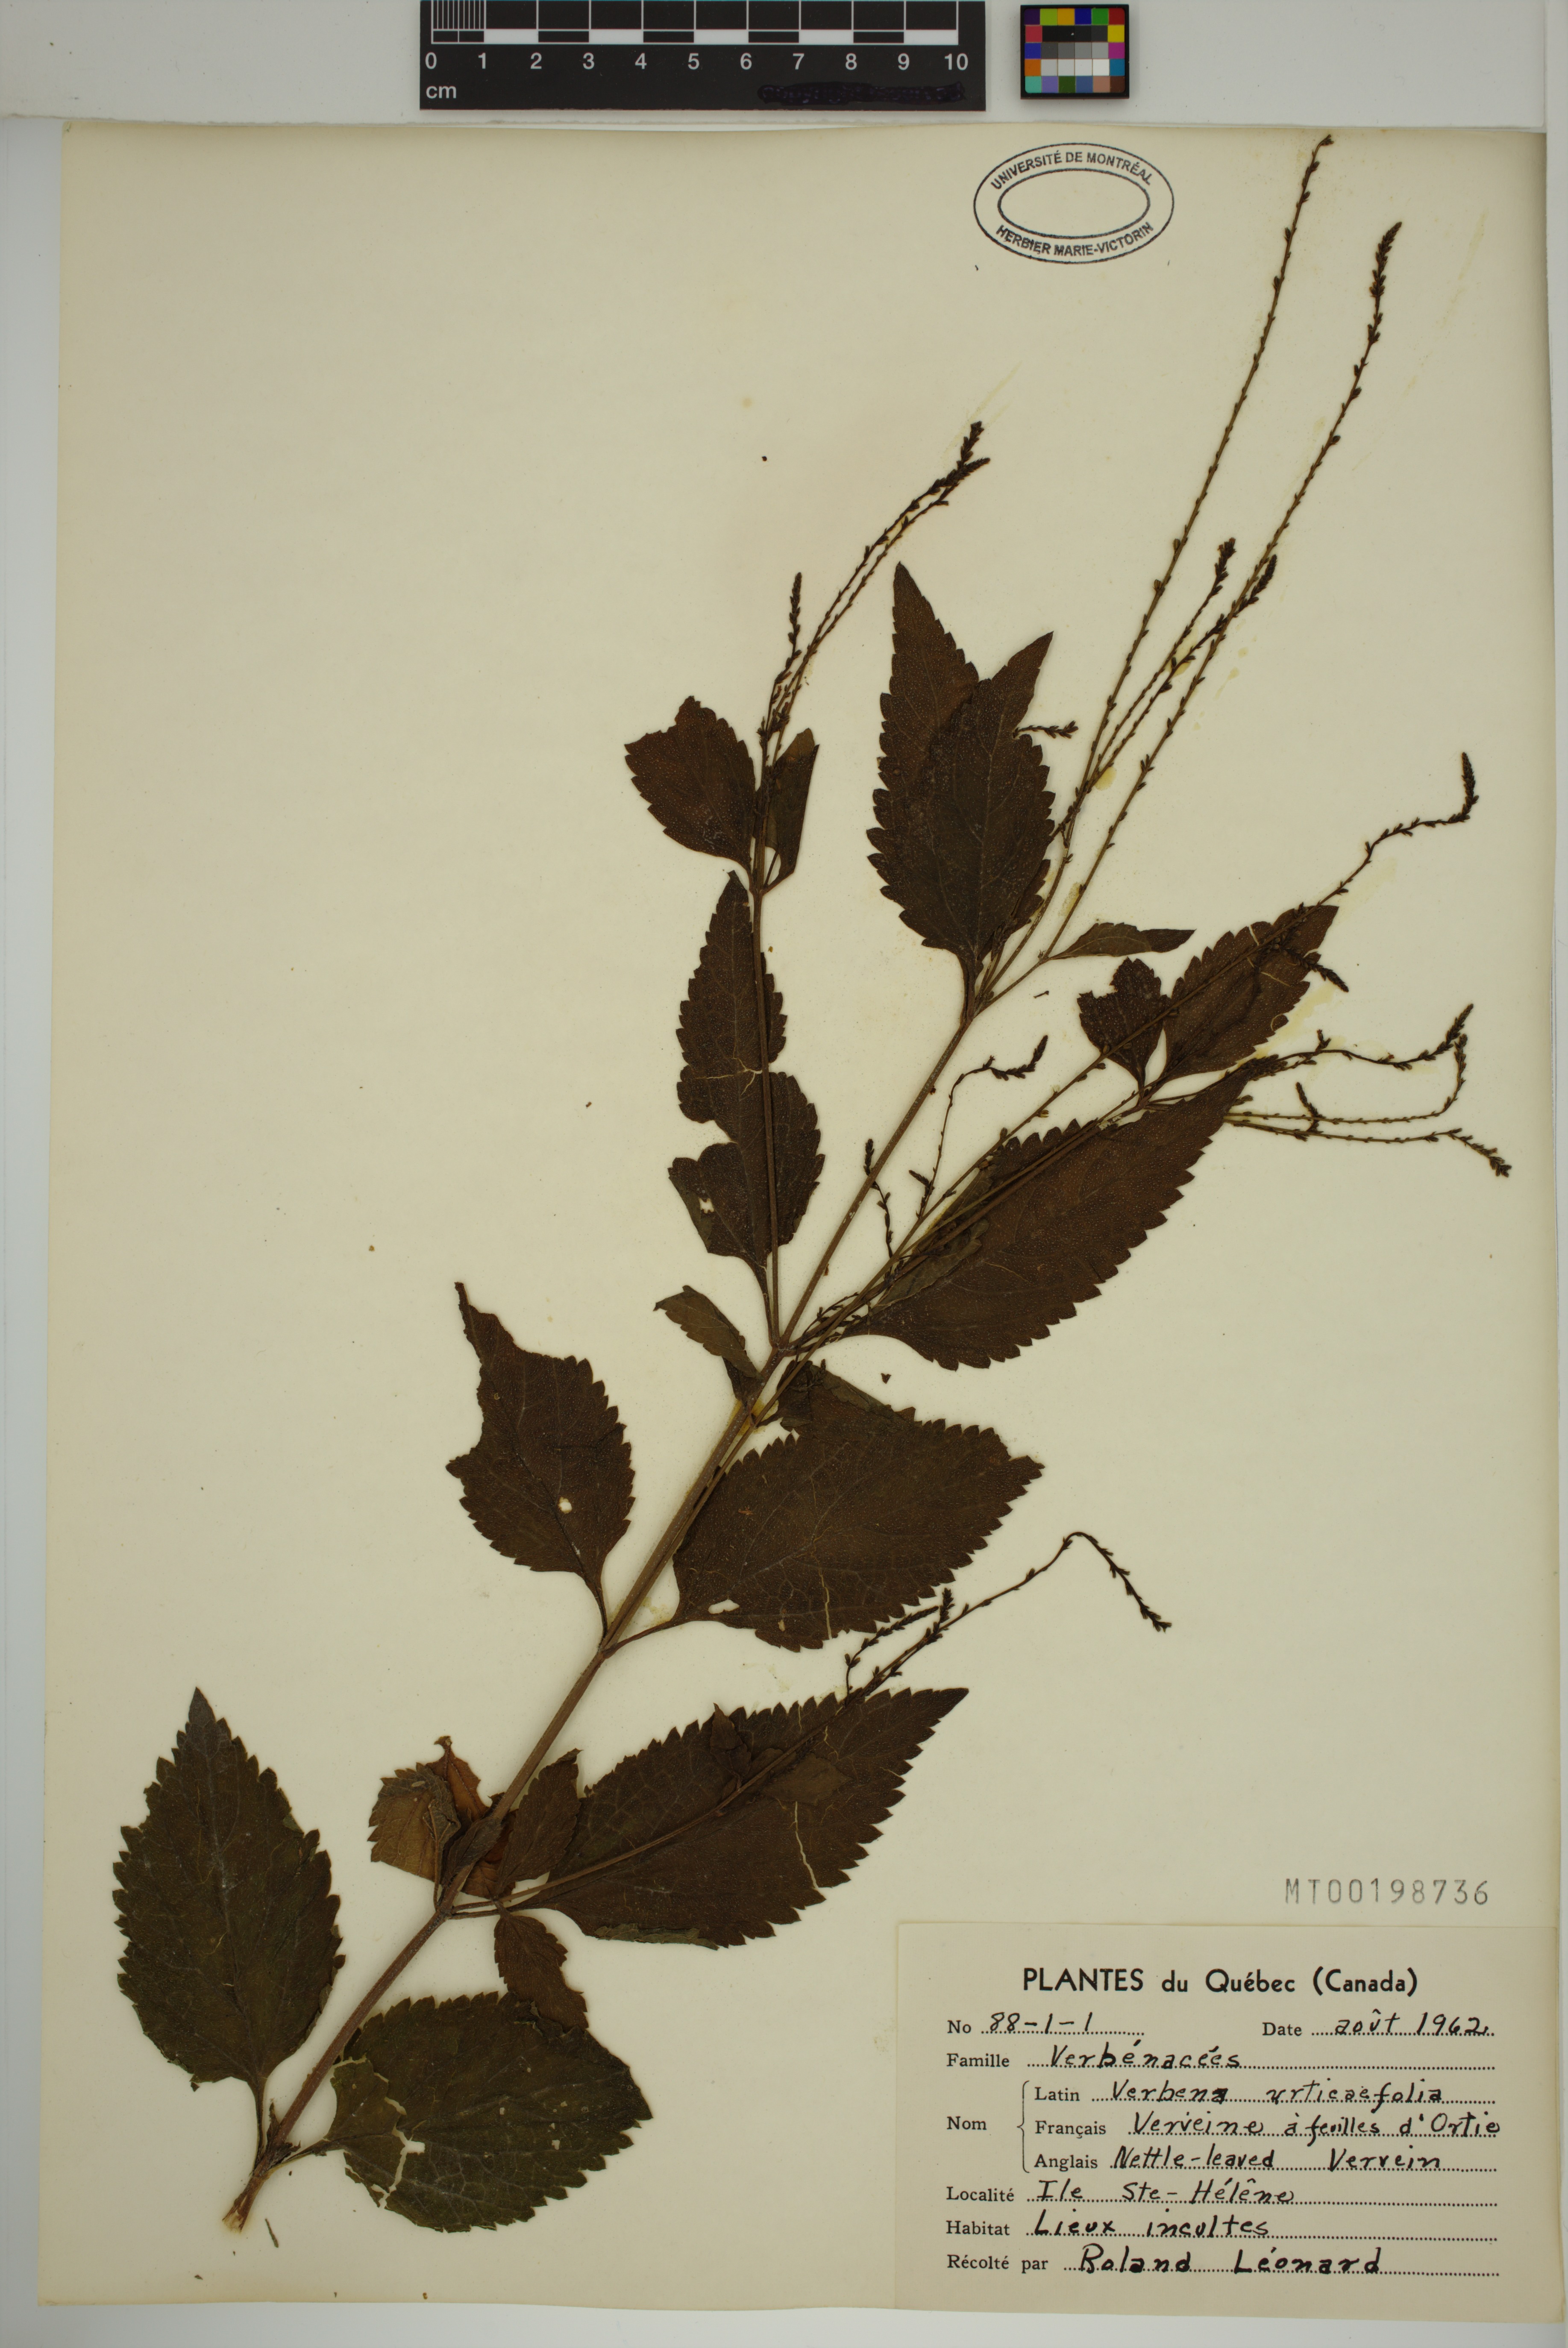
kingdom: Plantae
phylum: Tracheophyta
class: Magnoliopsida
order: Lamiales
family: Verbenaceae
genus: Verbena
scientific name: Verbena urticifolia
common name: Nettle-leaved vervain
